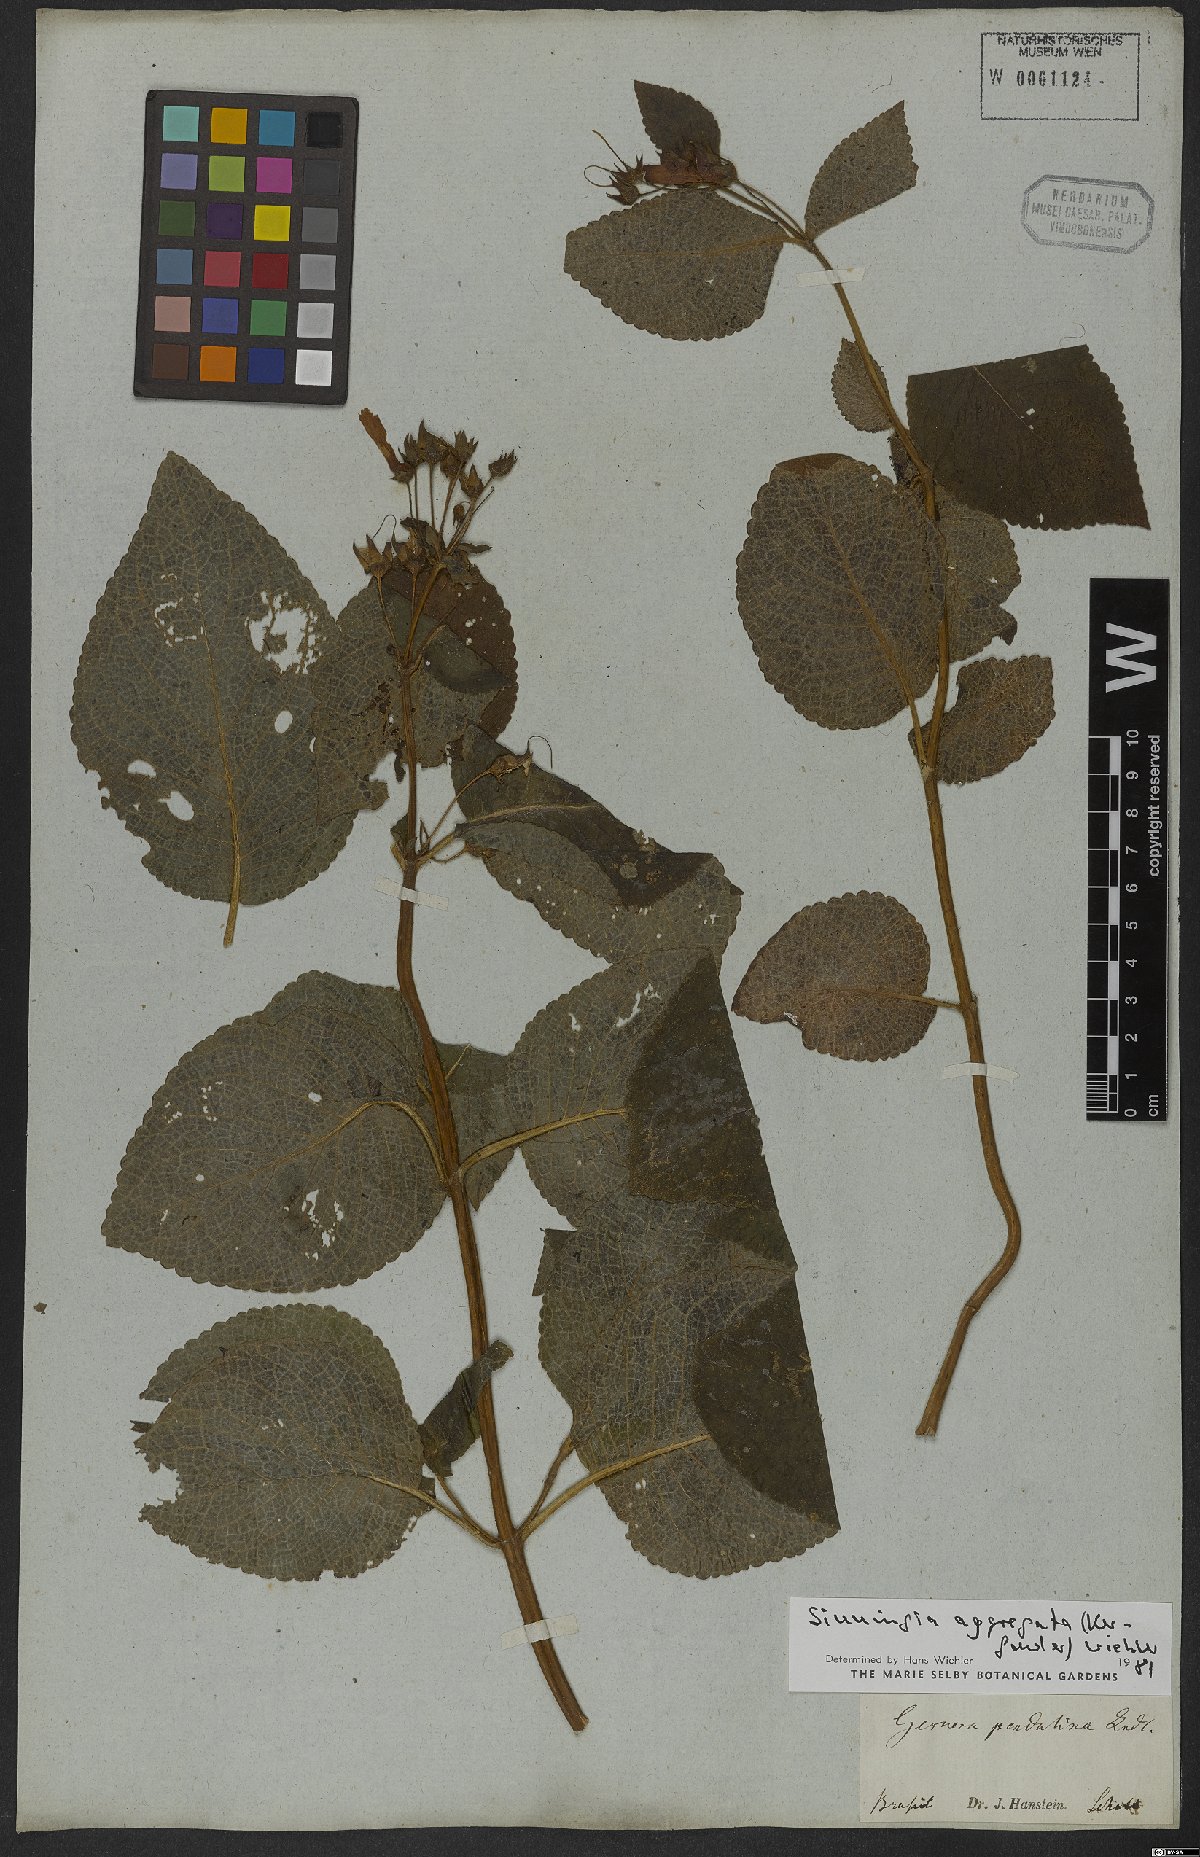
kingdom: Plantae
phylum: Tracheophyta
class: Magnoliopsida
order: Lamiales
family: Gesneriaceae
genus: Sinningia
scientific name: Sinningia aggregata
